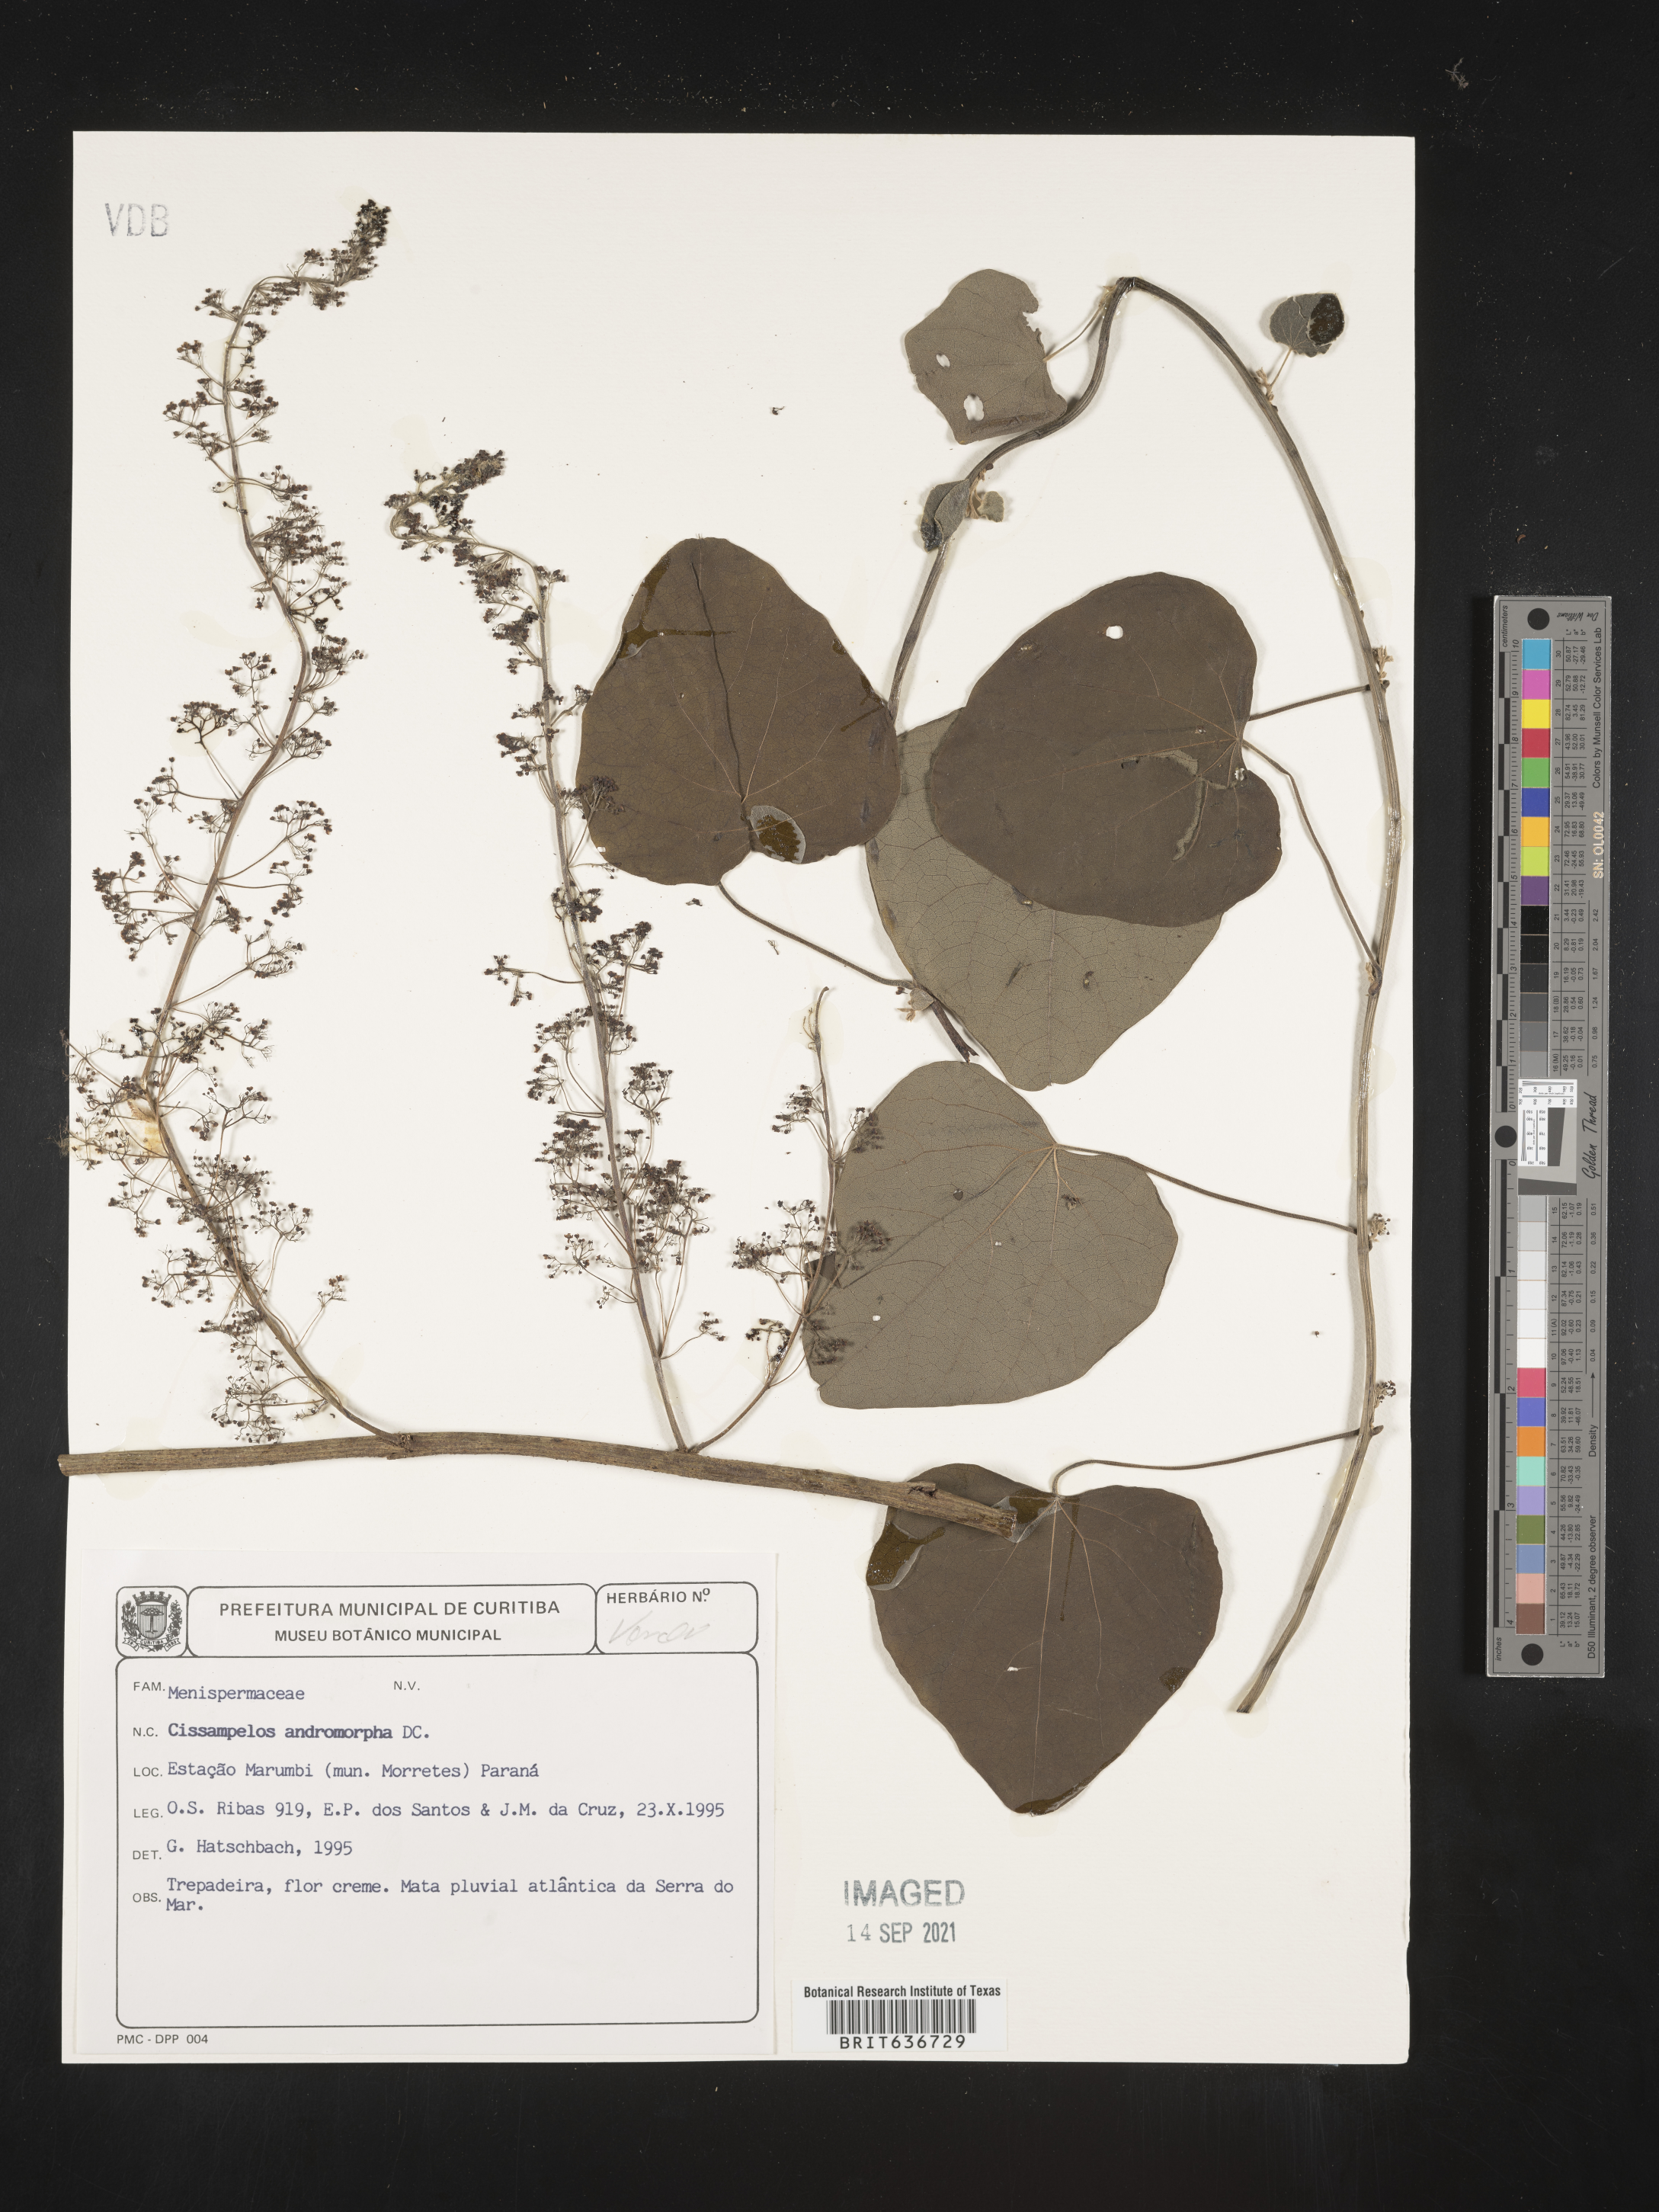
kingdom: Plantae
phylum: Tracheophyta
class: Magnoliopsida
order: Ranunculales
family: Menispermaceae
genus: Cissampelos
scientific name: Cissampelos
